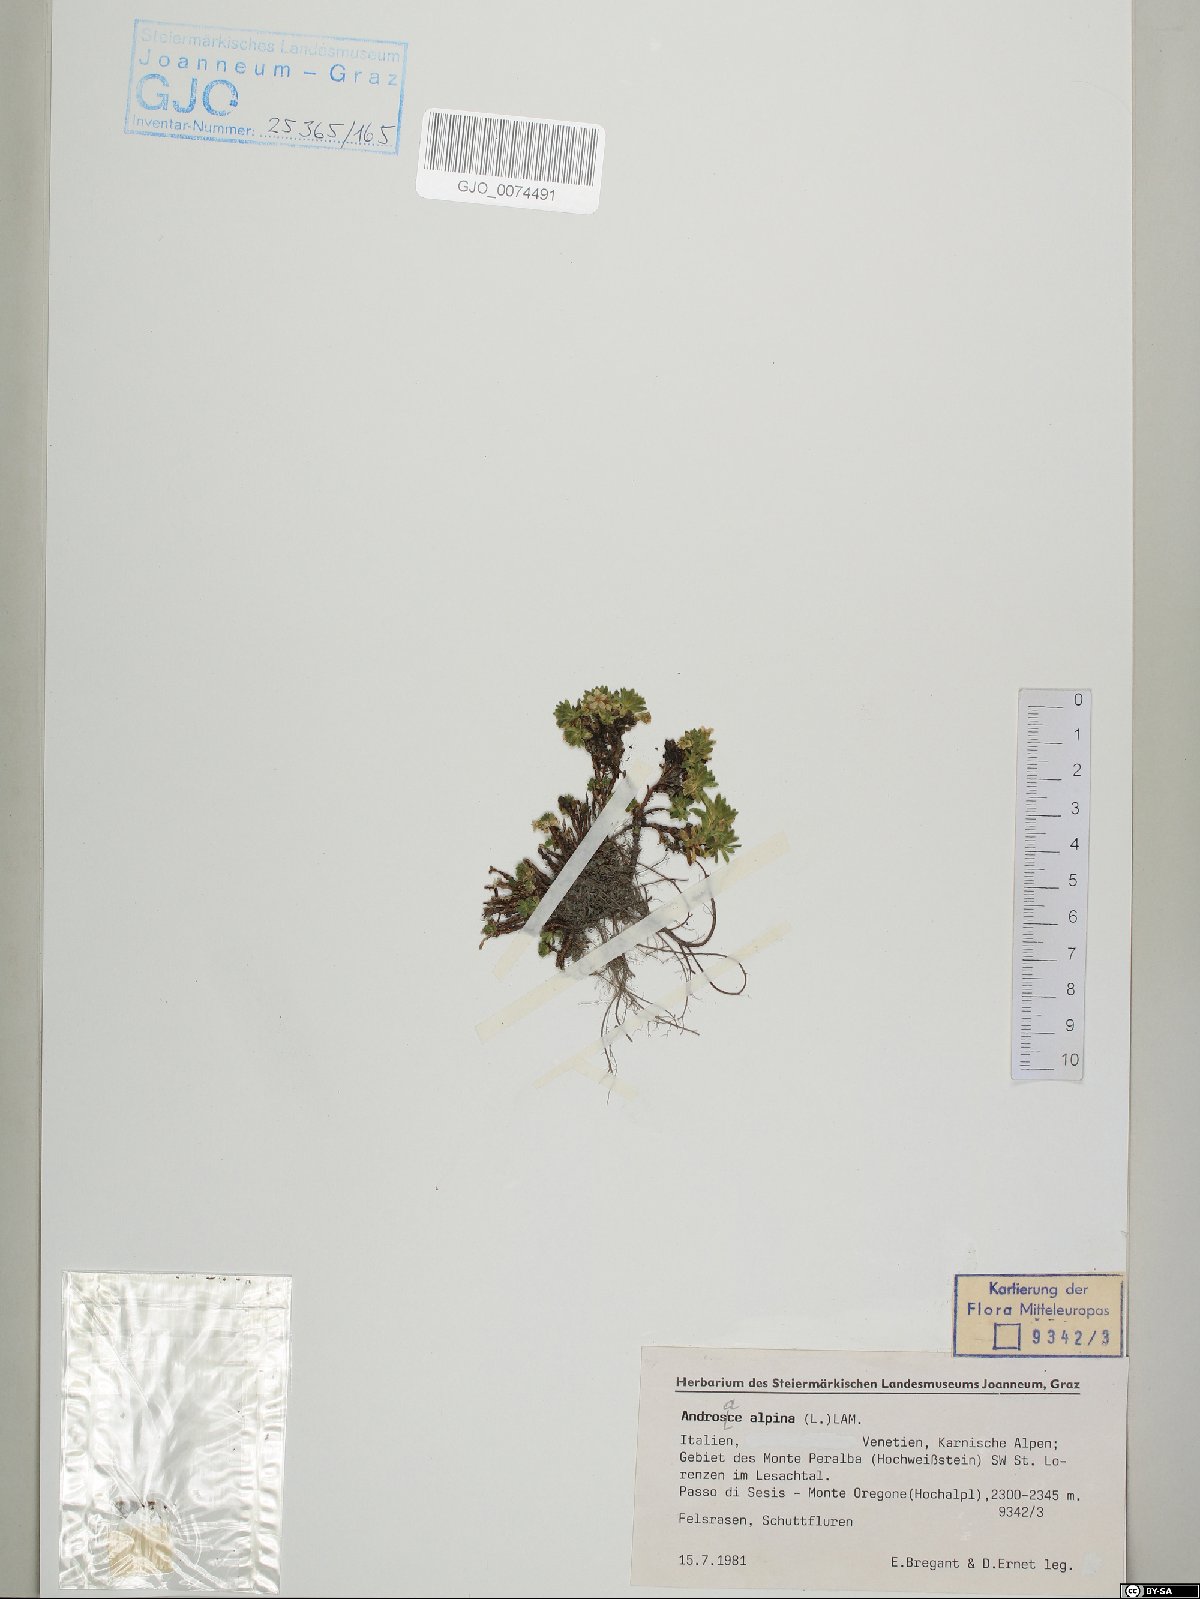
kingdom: Plantae
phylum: Tracheophyta
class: Magnoliopsida
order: Ericales
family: Primulaceae
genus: Androsace
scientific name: Androsace alpina
